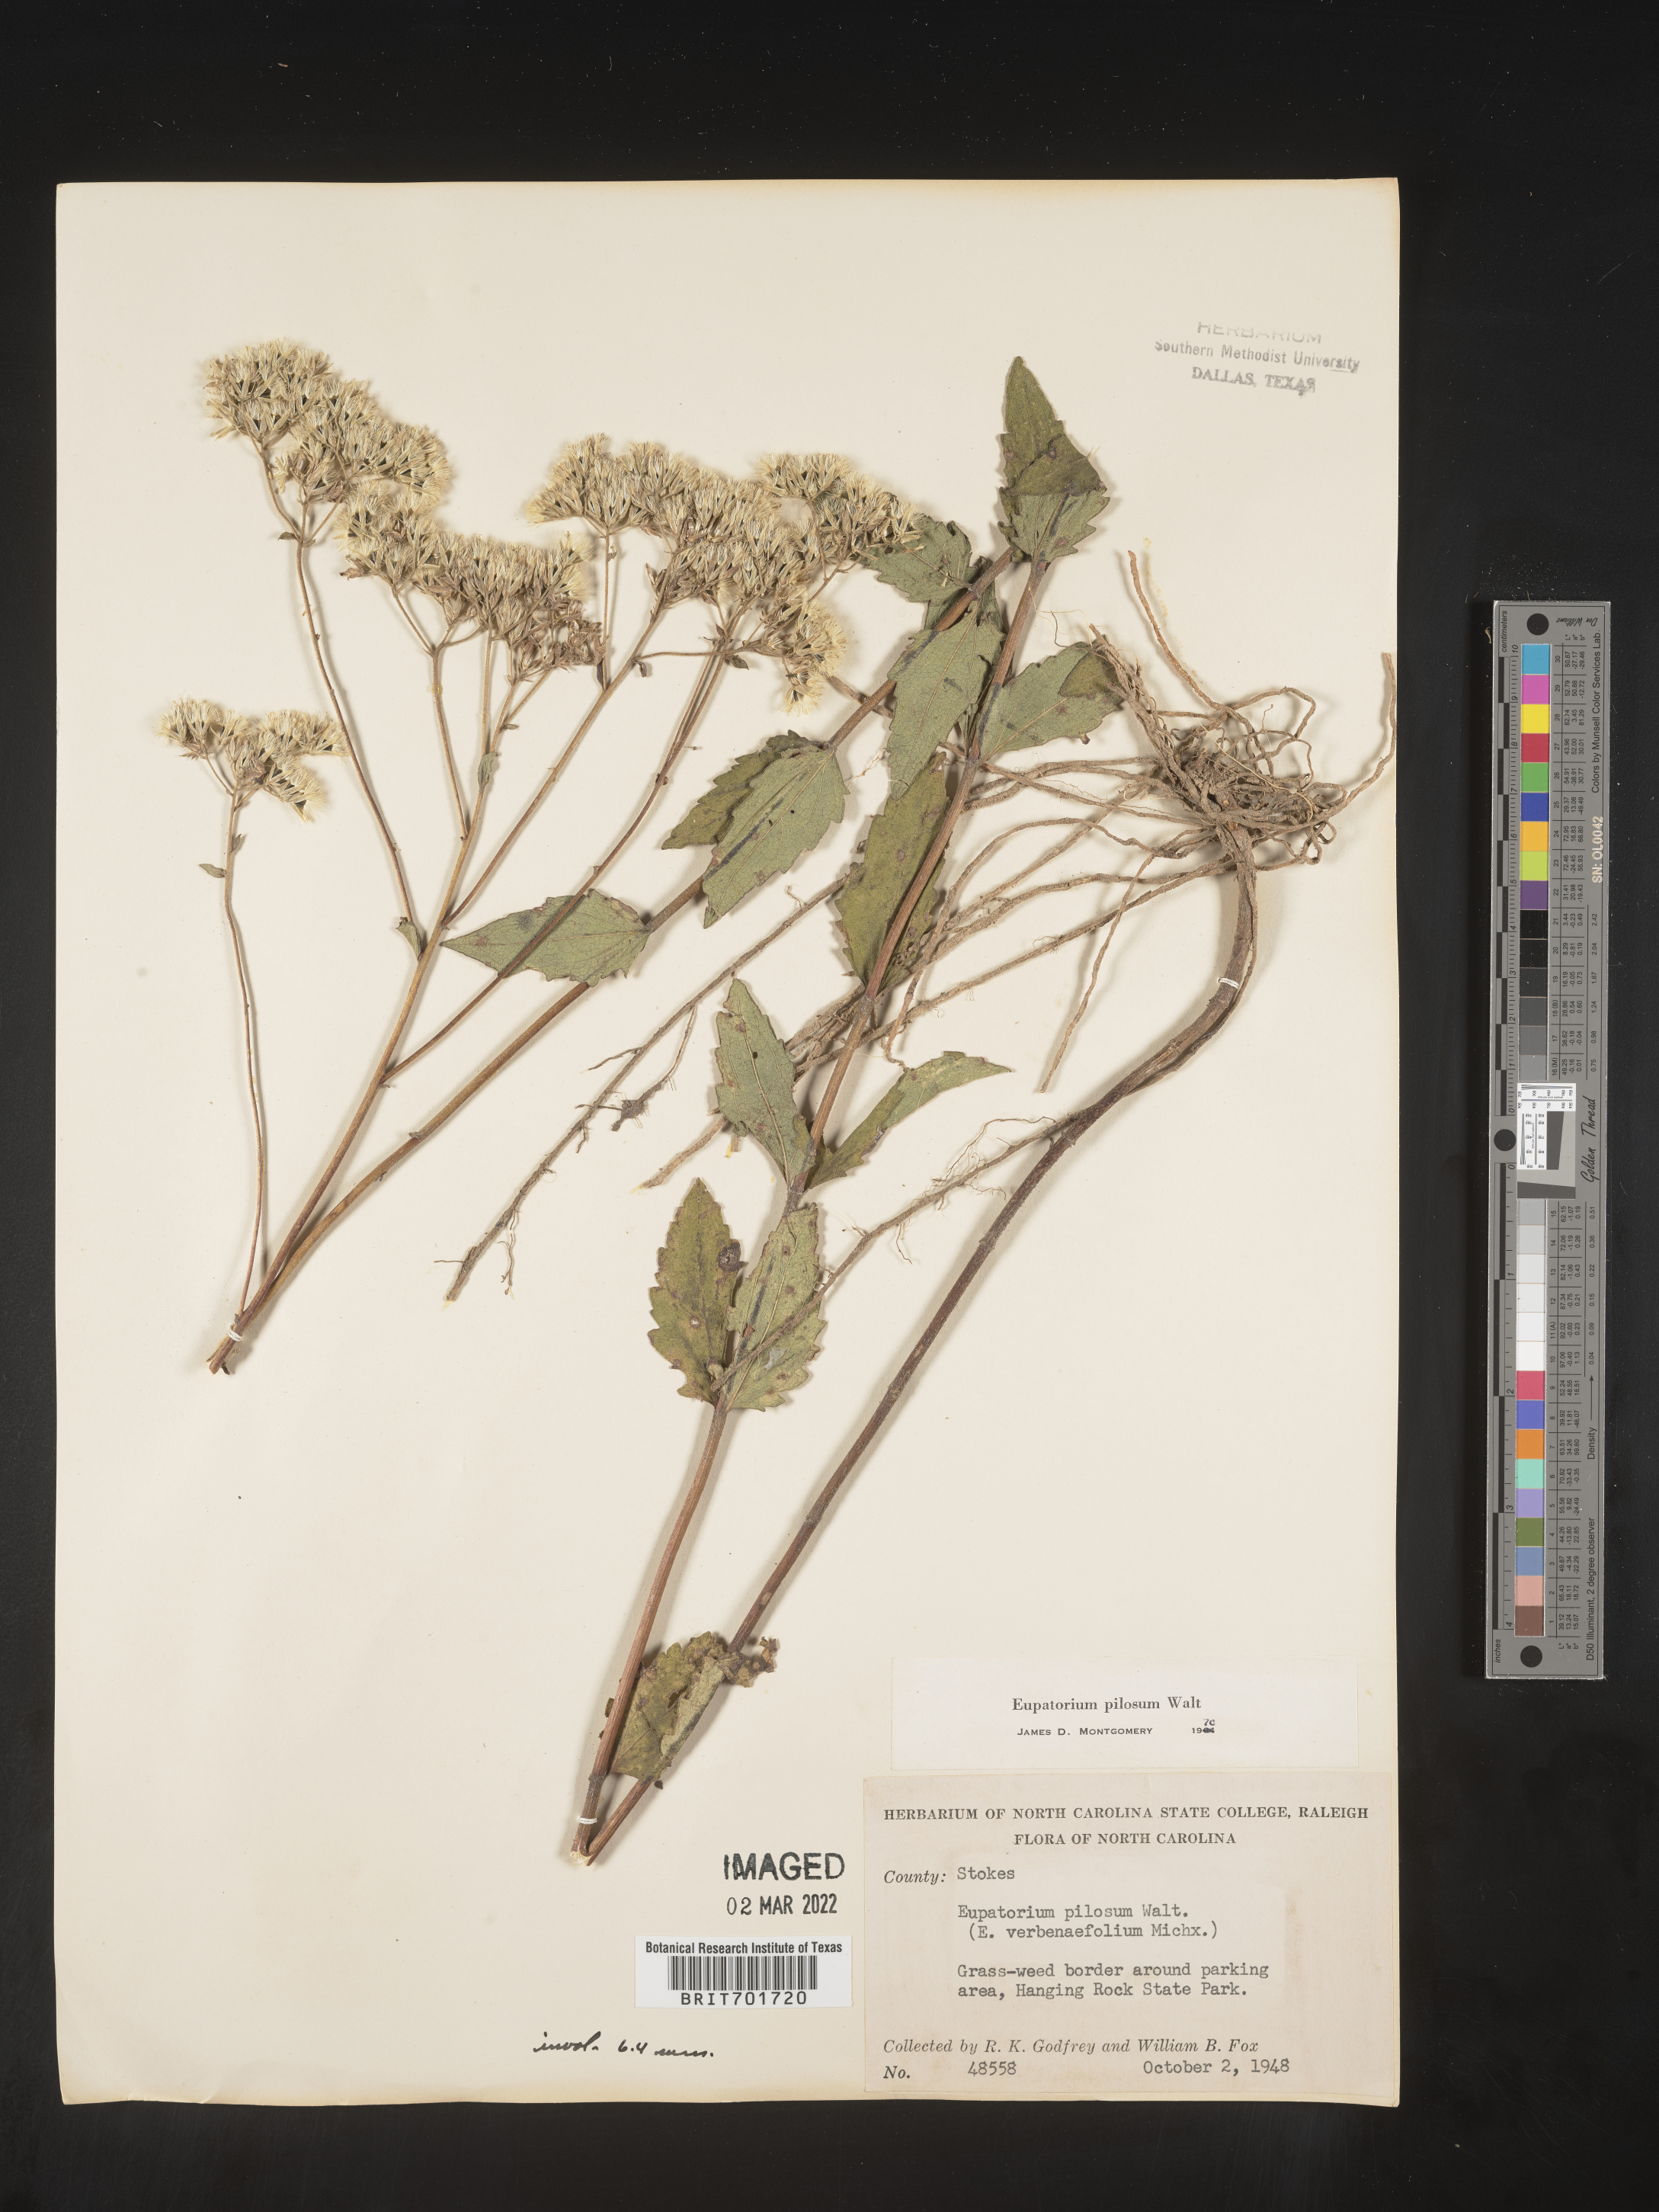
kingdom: Plantae
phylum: Tracheophyta
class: Magnoliopsida
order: Asterales
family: Asteraceae
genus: Eupatorium
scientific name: Eupatorium pilosum
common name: Rough boneset
